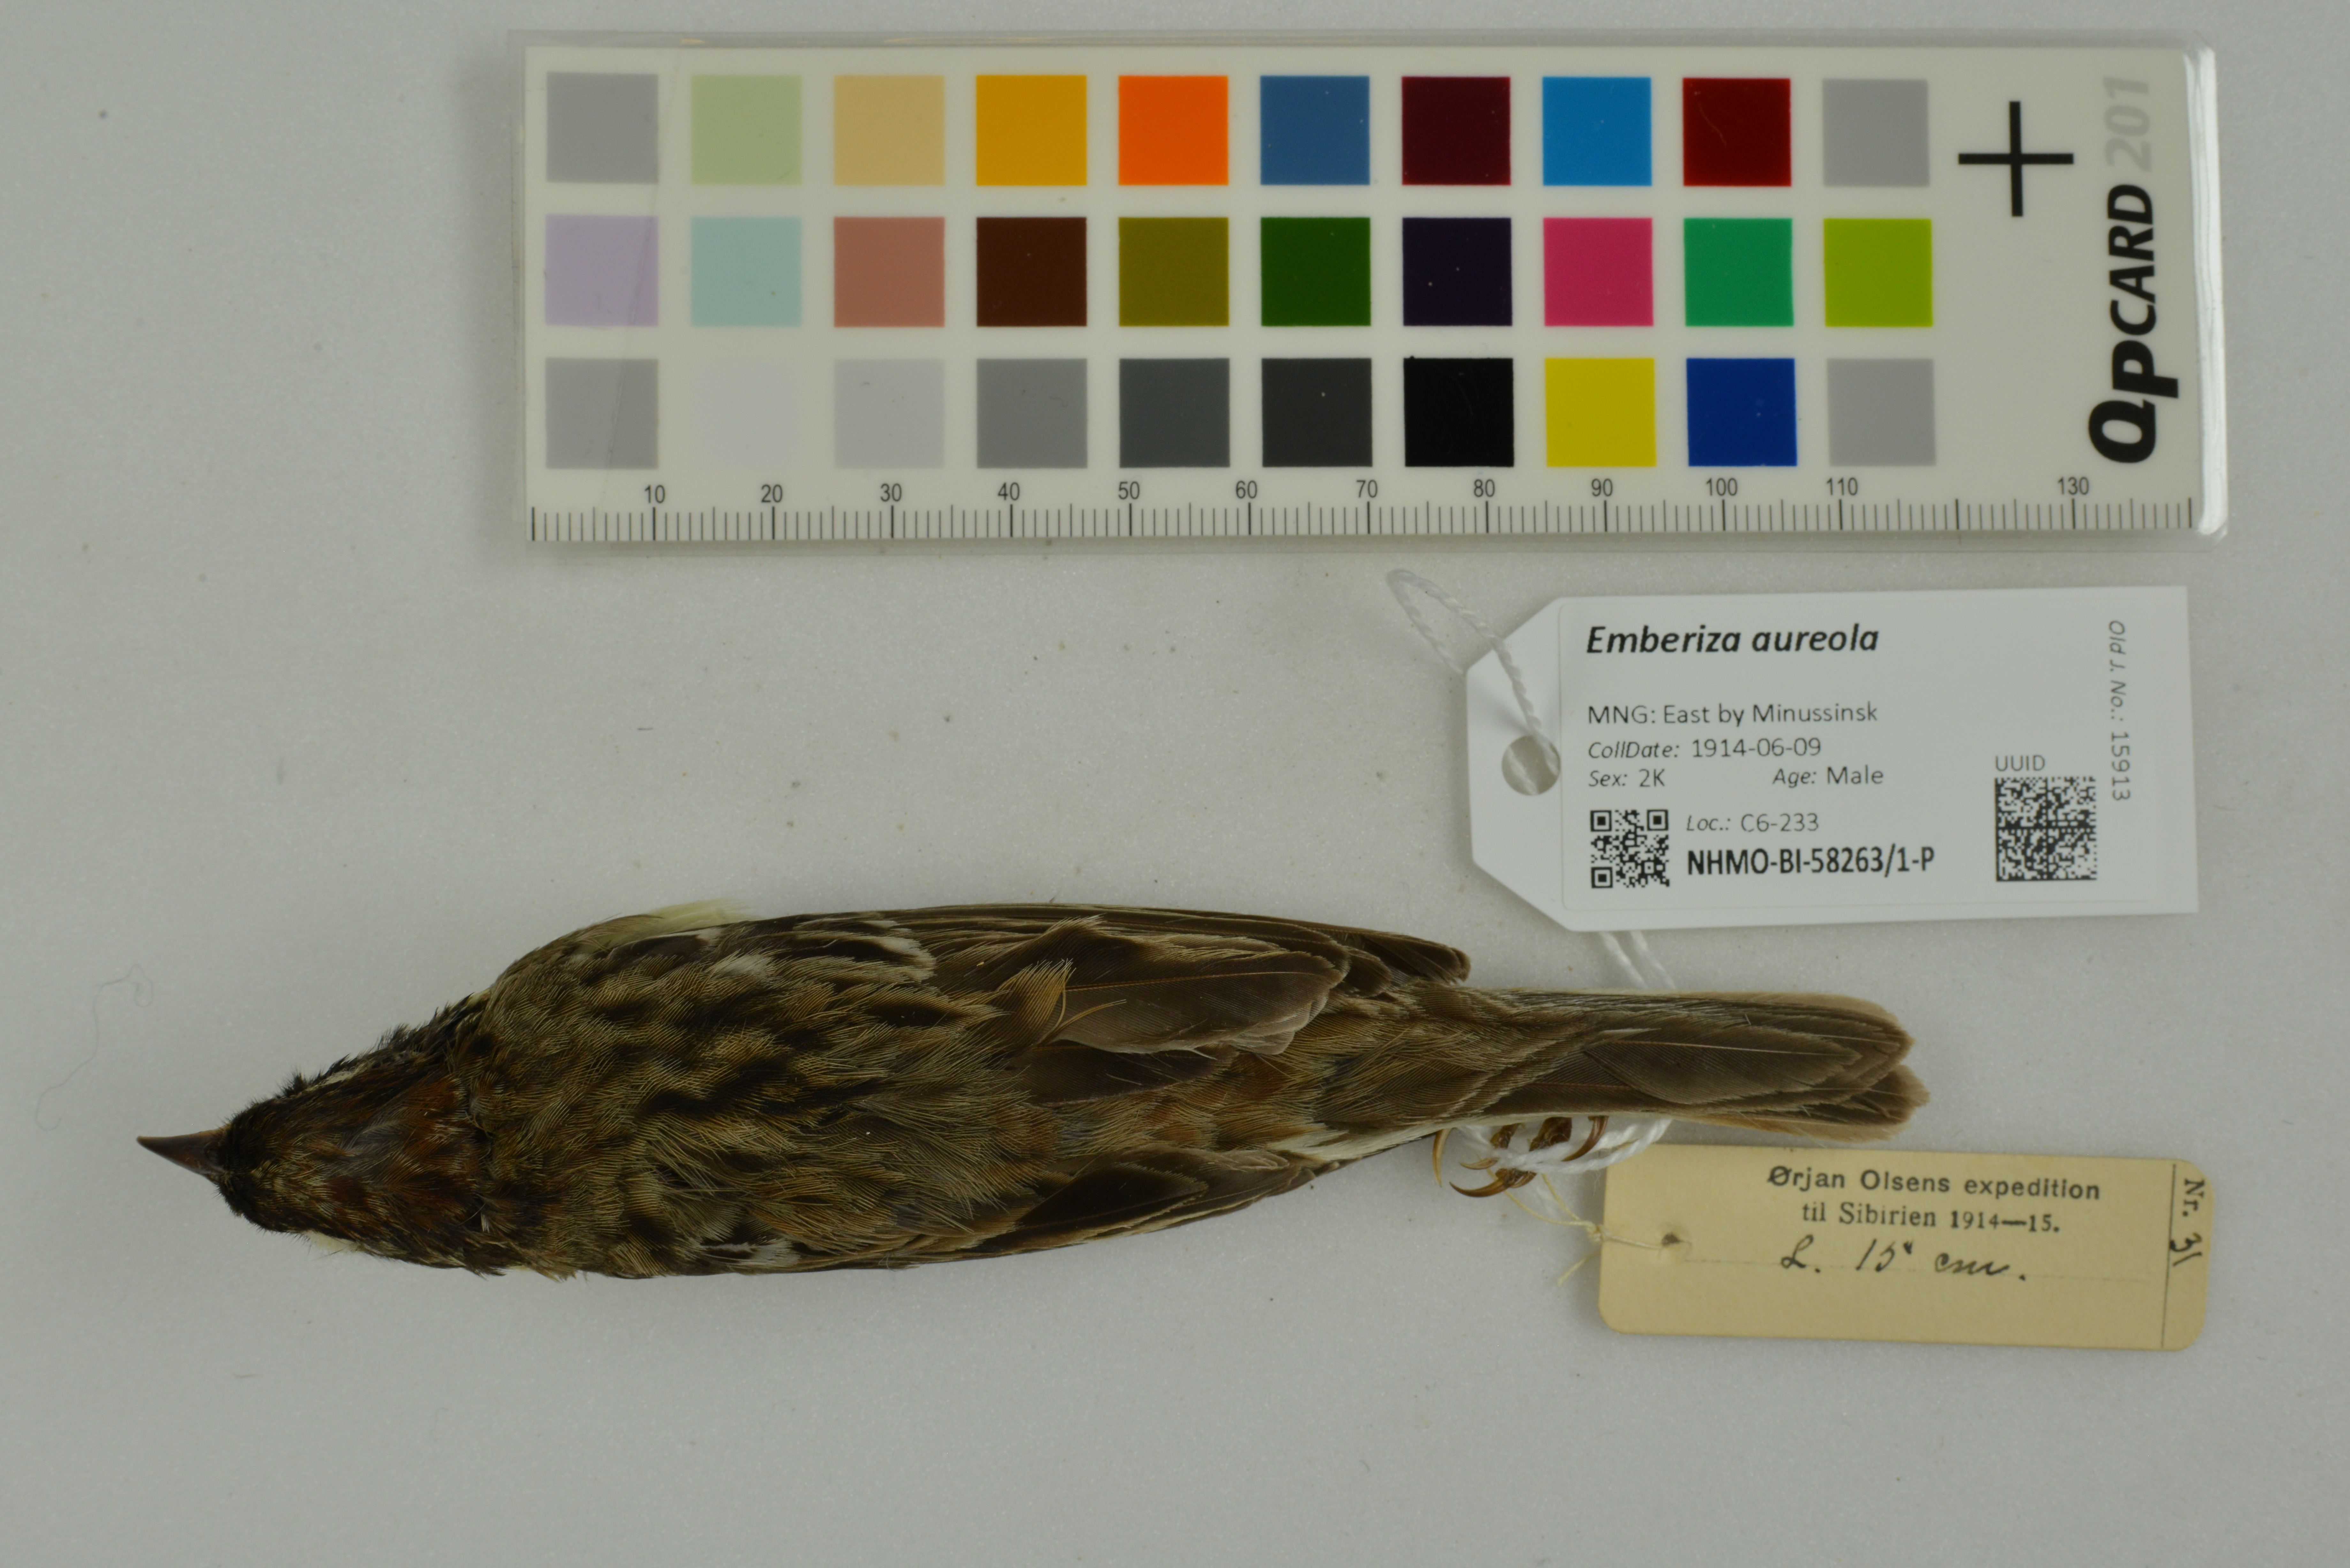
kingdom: Animalia
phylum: Chordata
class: Aves
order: Passeriformes
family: Emberizidae
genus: Emberiza
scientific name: Emberiza aureola
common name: Yellow-breasted bunting
